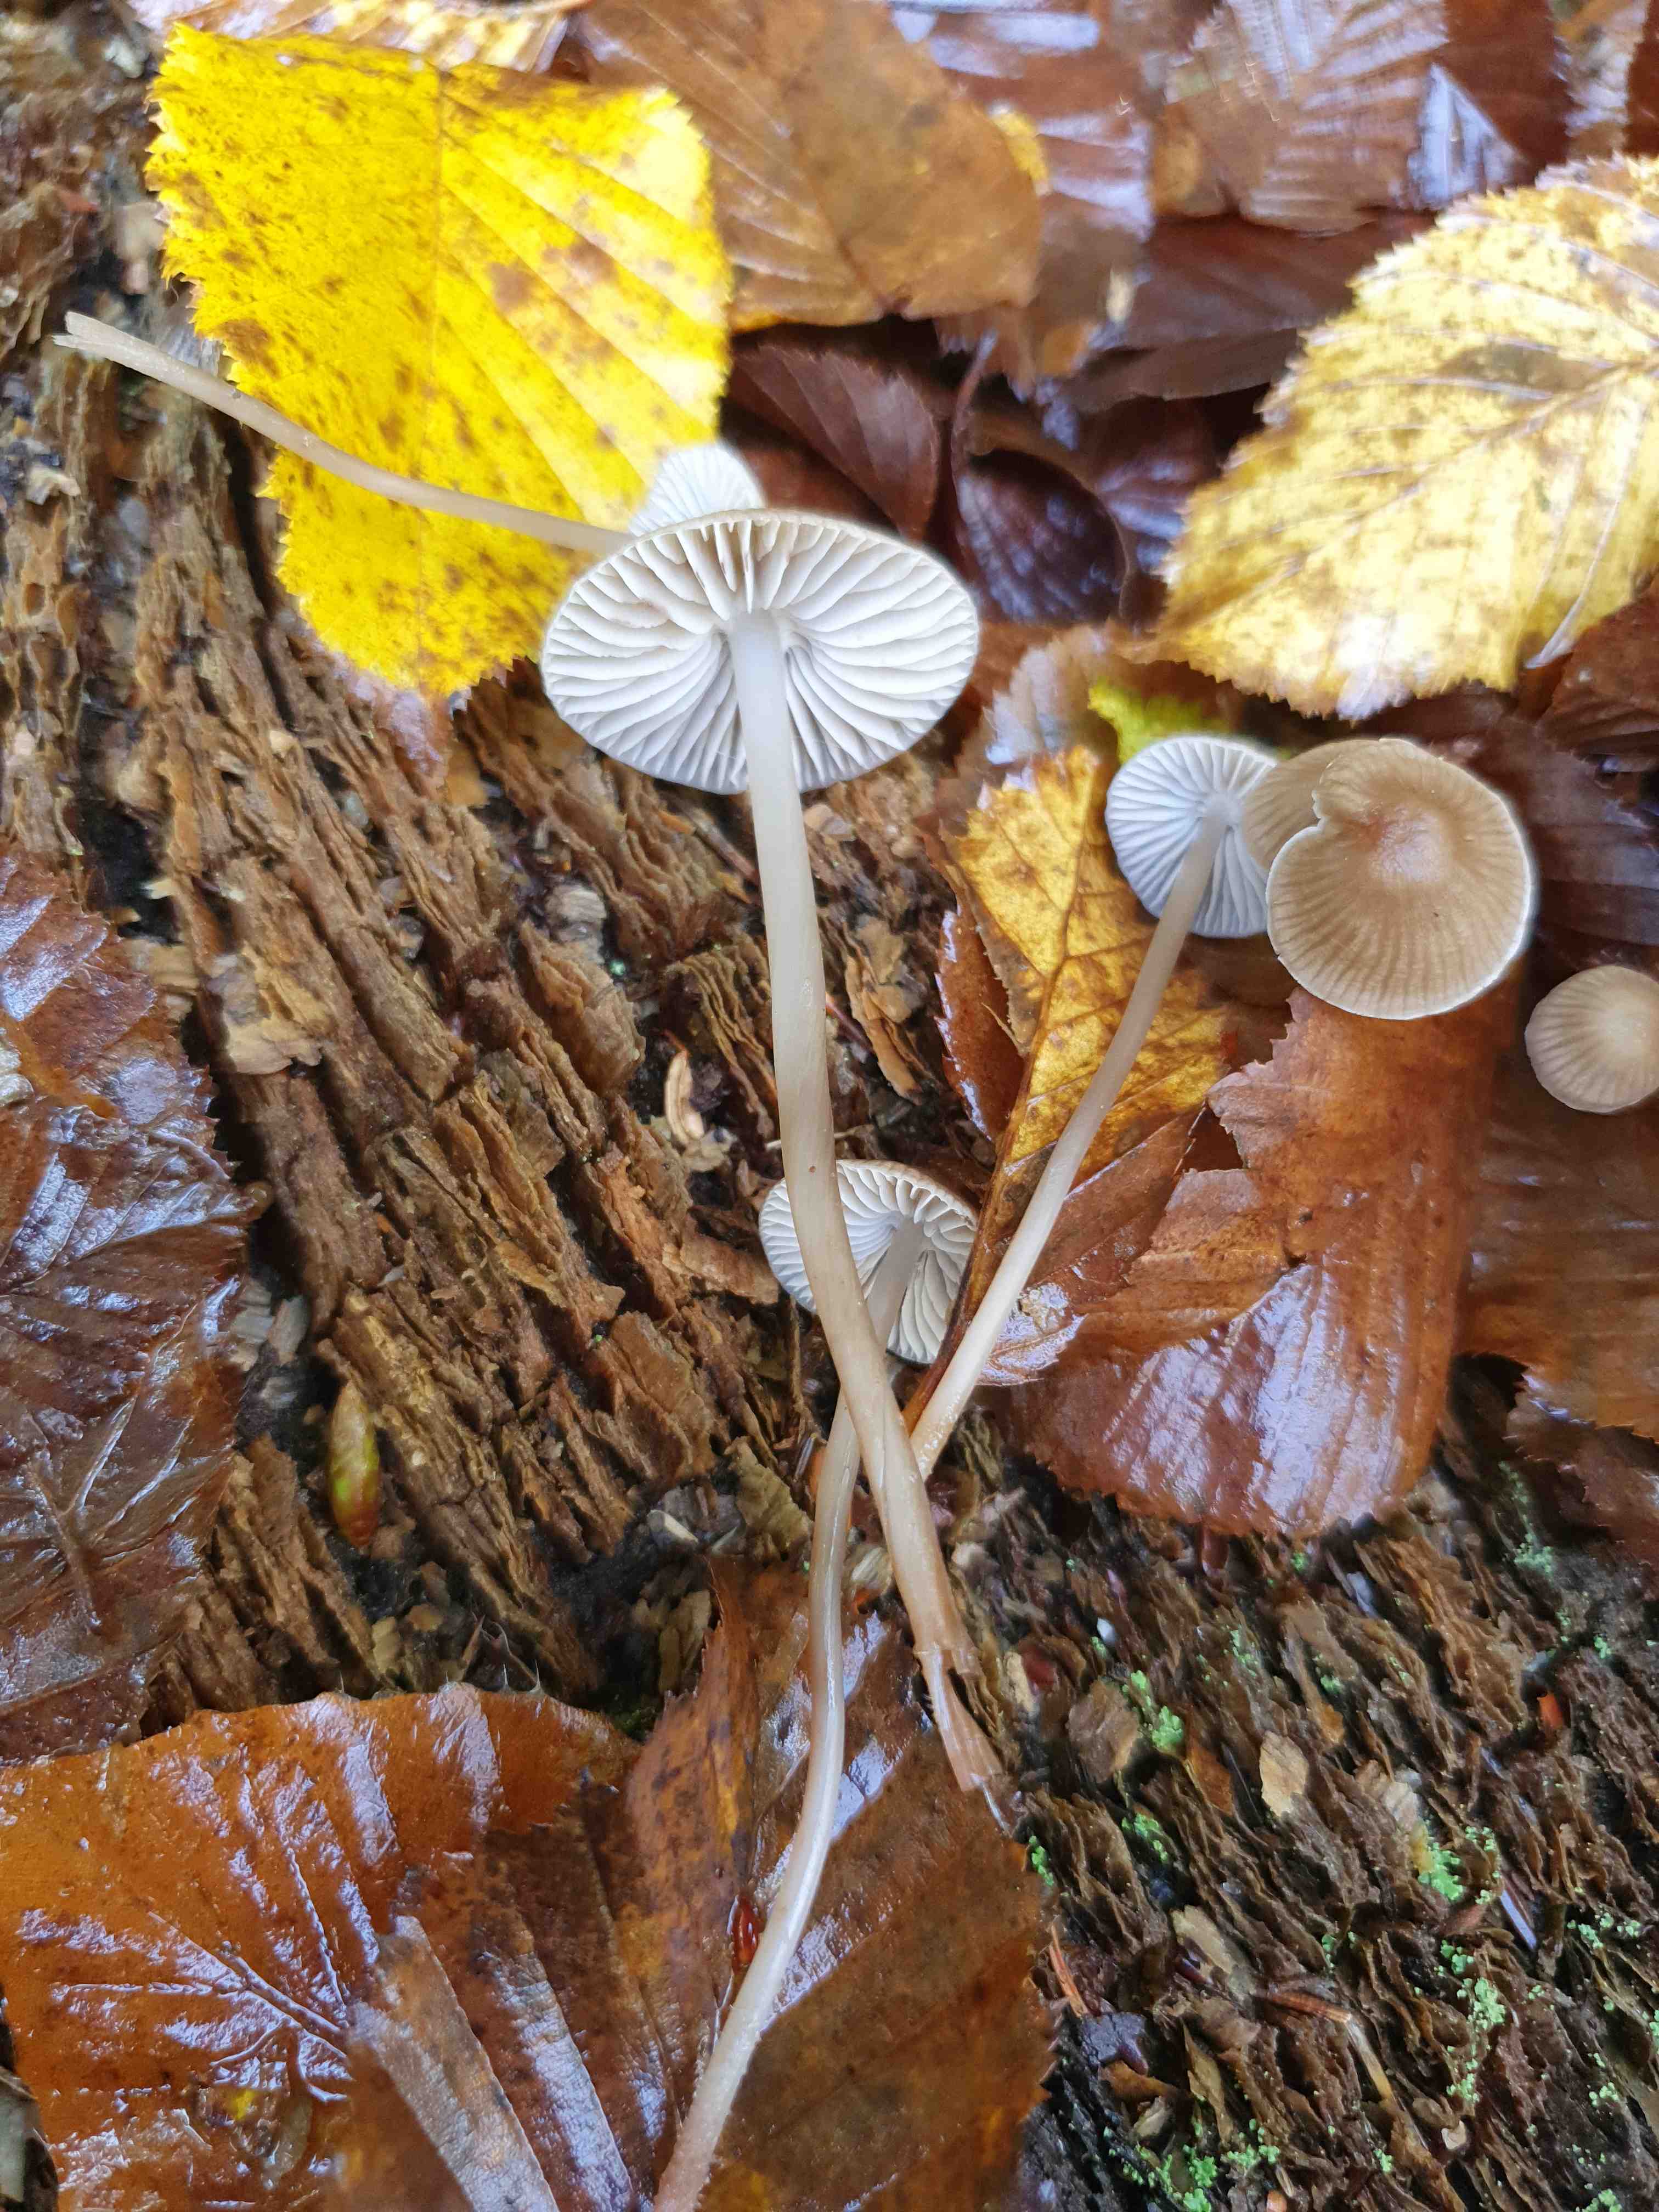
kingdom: Fungi
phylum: Basidiomycota
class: Agaricomycetes
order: Agaricales
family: Mycenaceae
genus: Mycena
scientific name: Mycena galericulata
